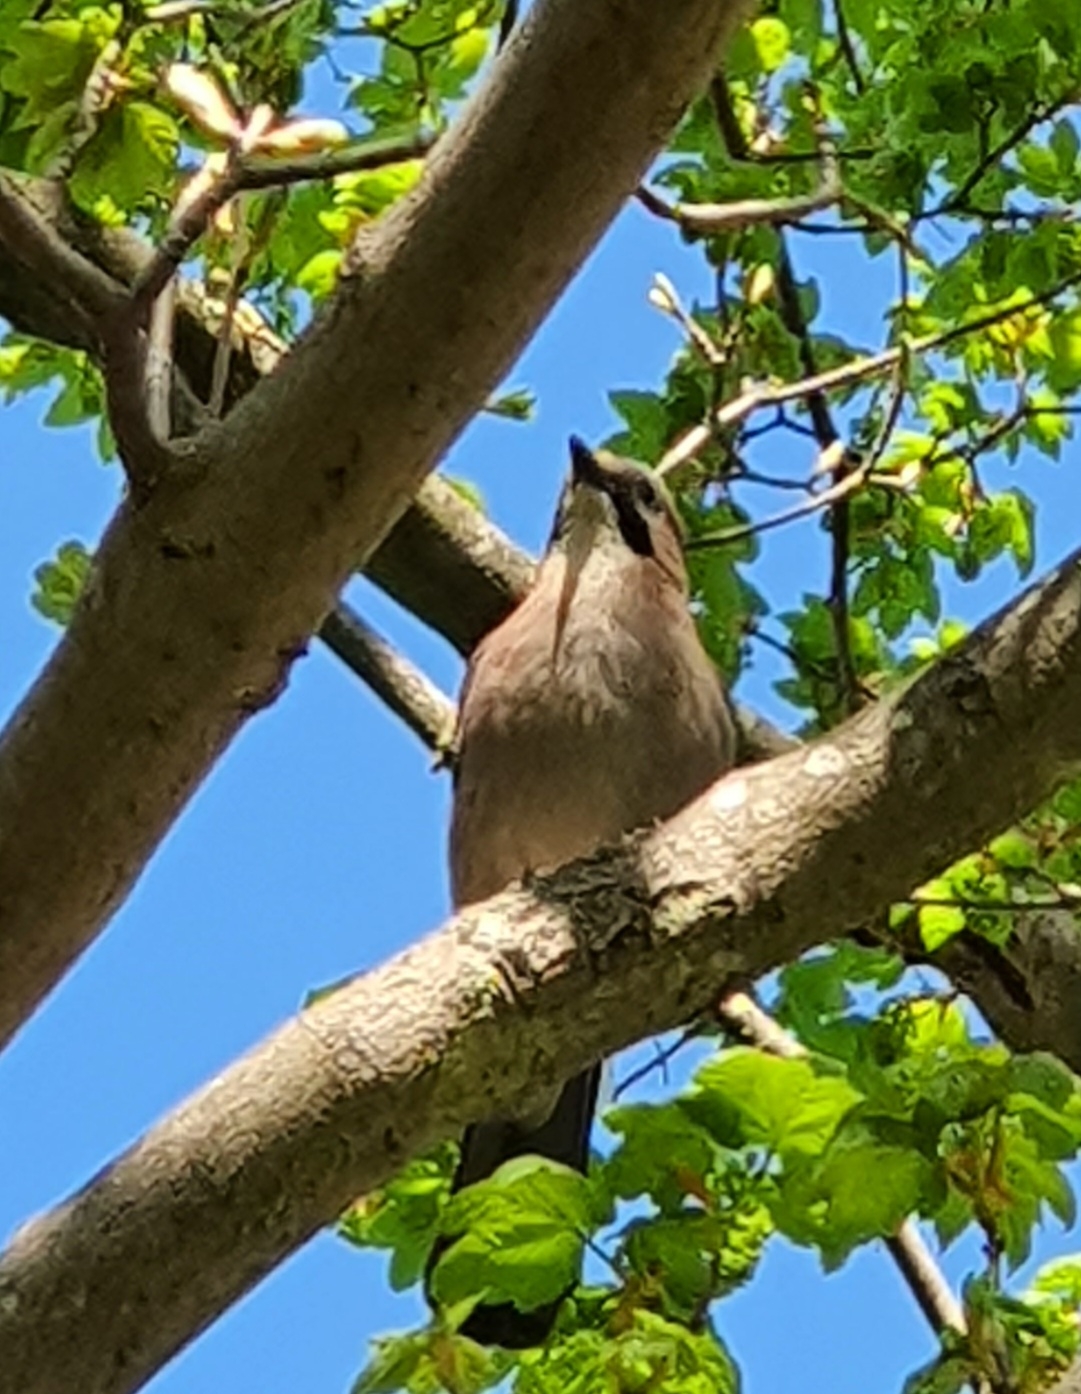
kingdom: Animalia
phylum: Chordata
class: Aves
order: Passeriformes
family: Corvidae
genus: Garrulus
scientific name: Garrulus glandarius
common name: Skovskade
